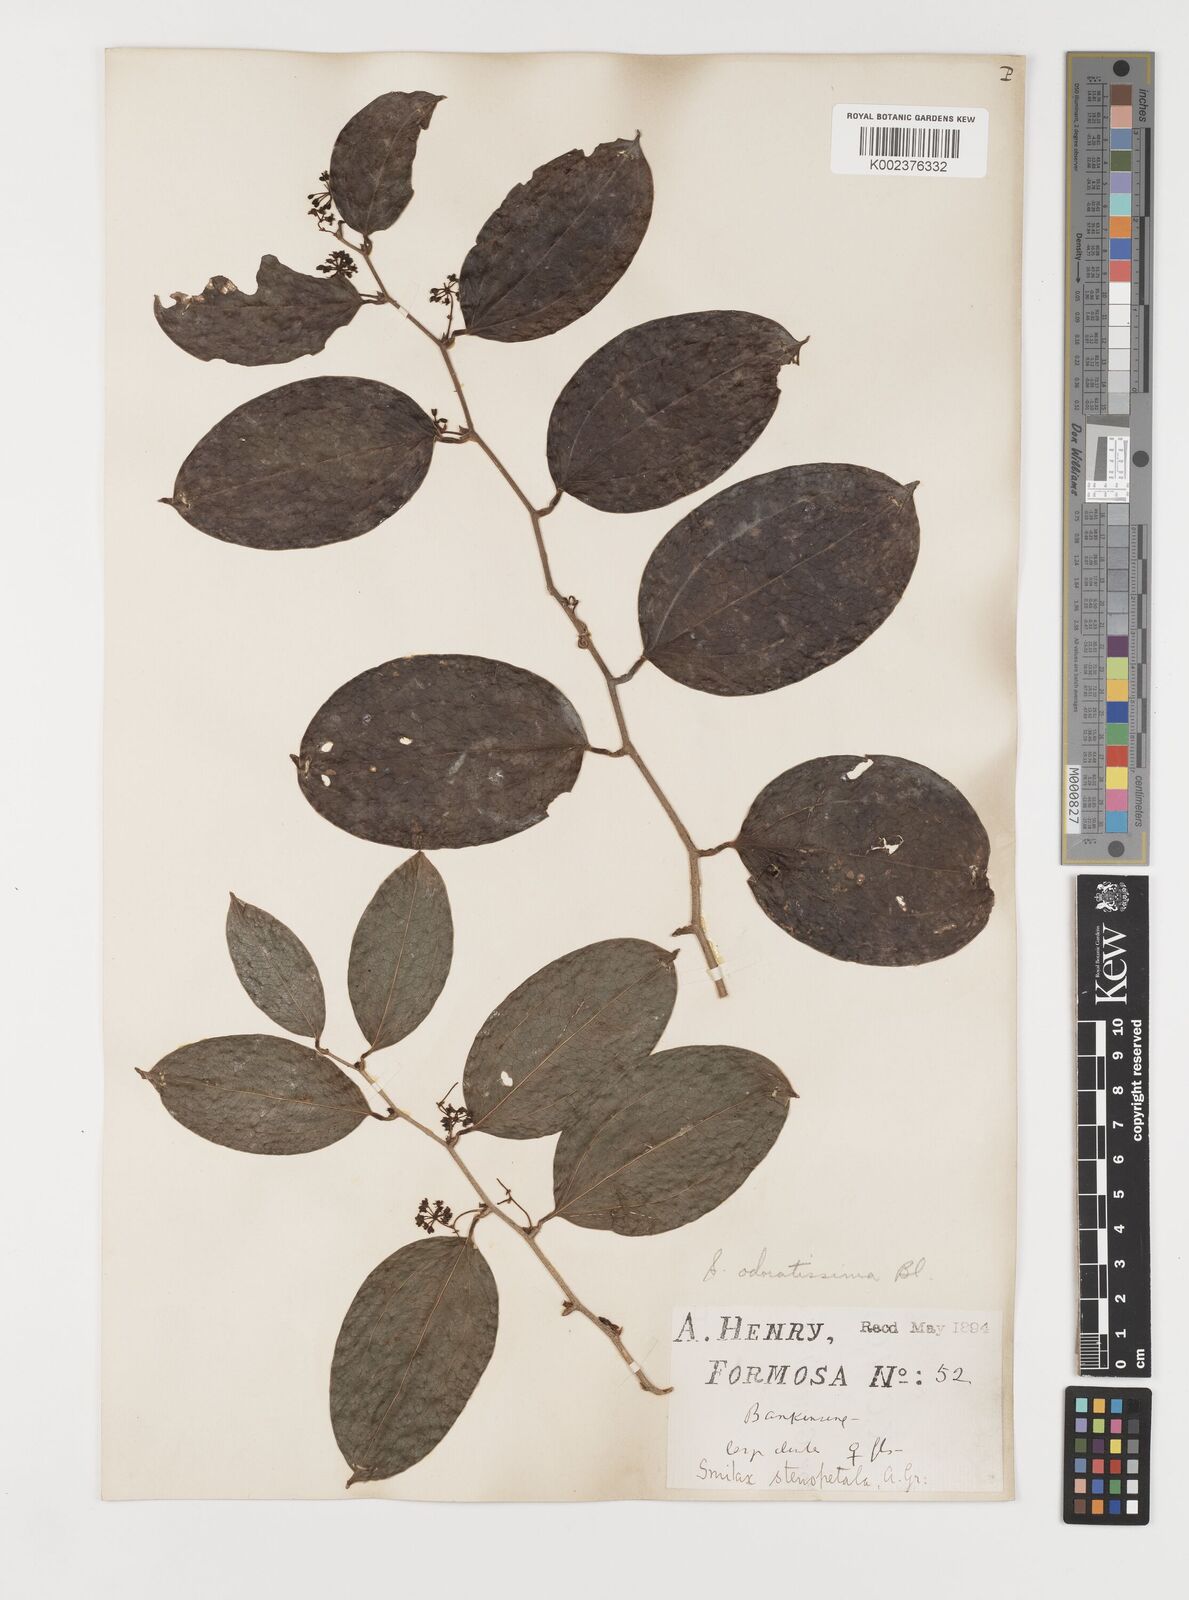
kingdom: Plantae
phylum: Tracheophyta
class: Liliopsida
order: Liliales
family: Smilacaceae
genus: Smilax
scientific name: Smilax odoratissima
